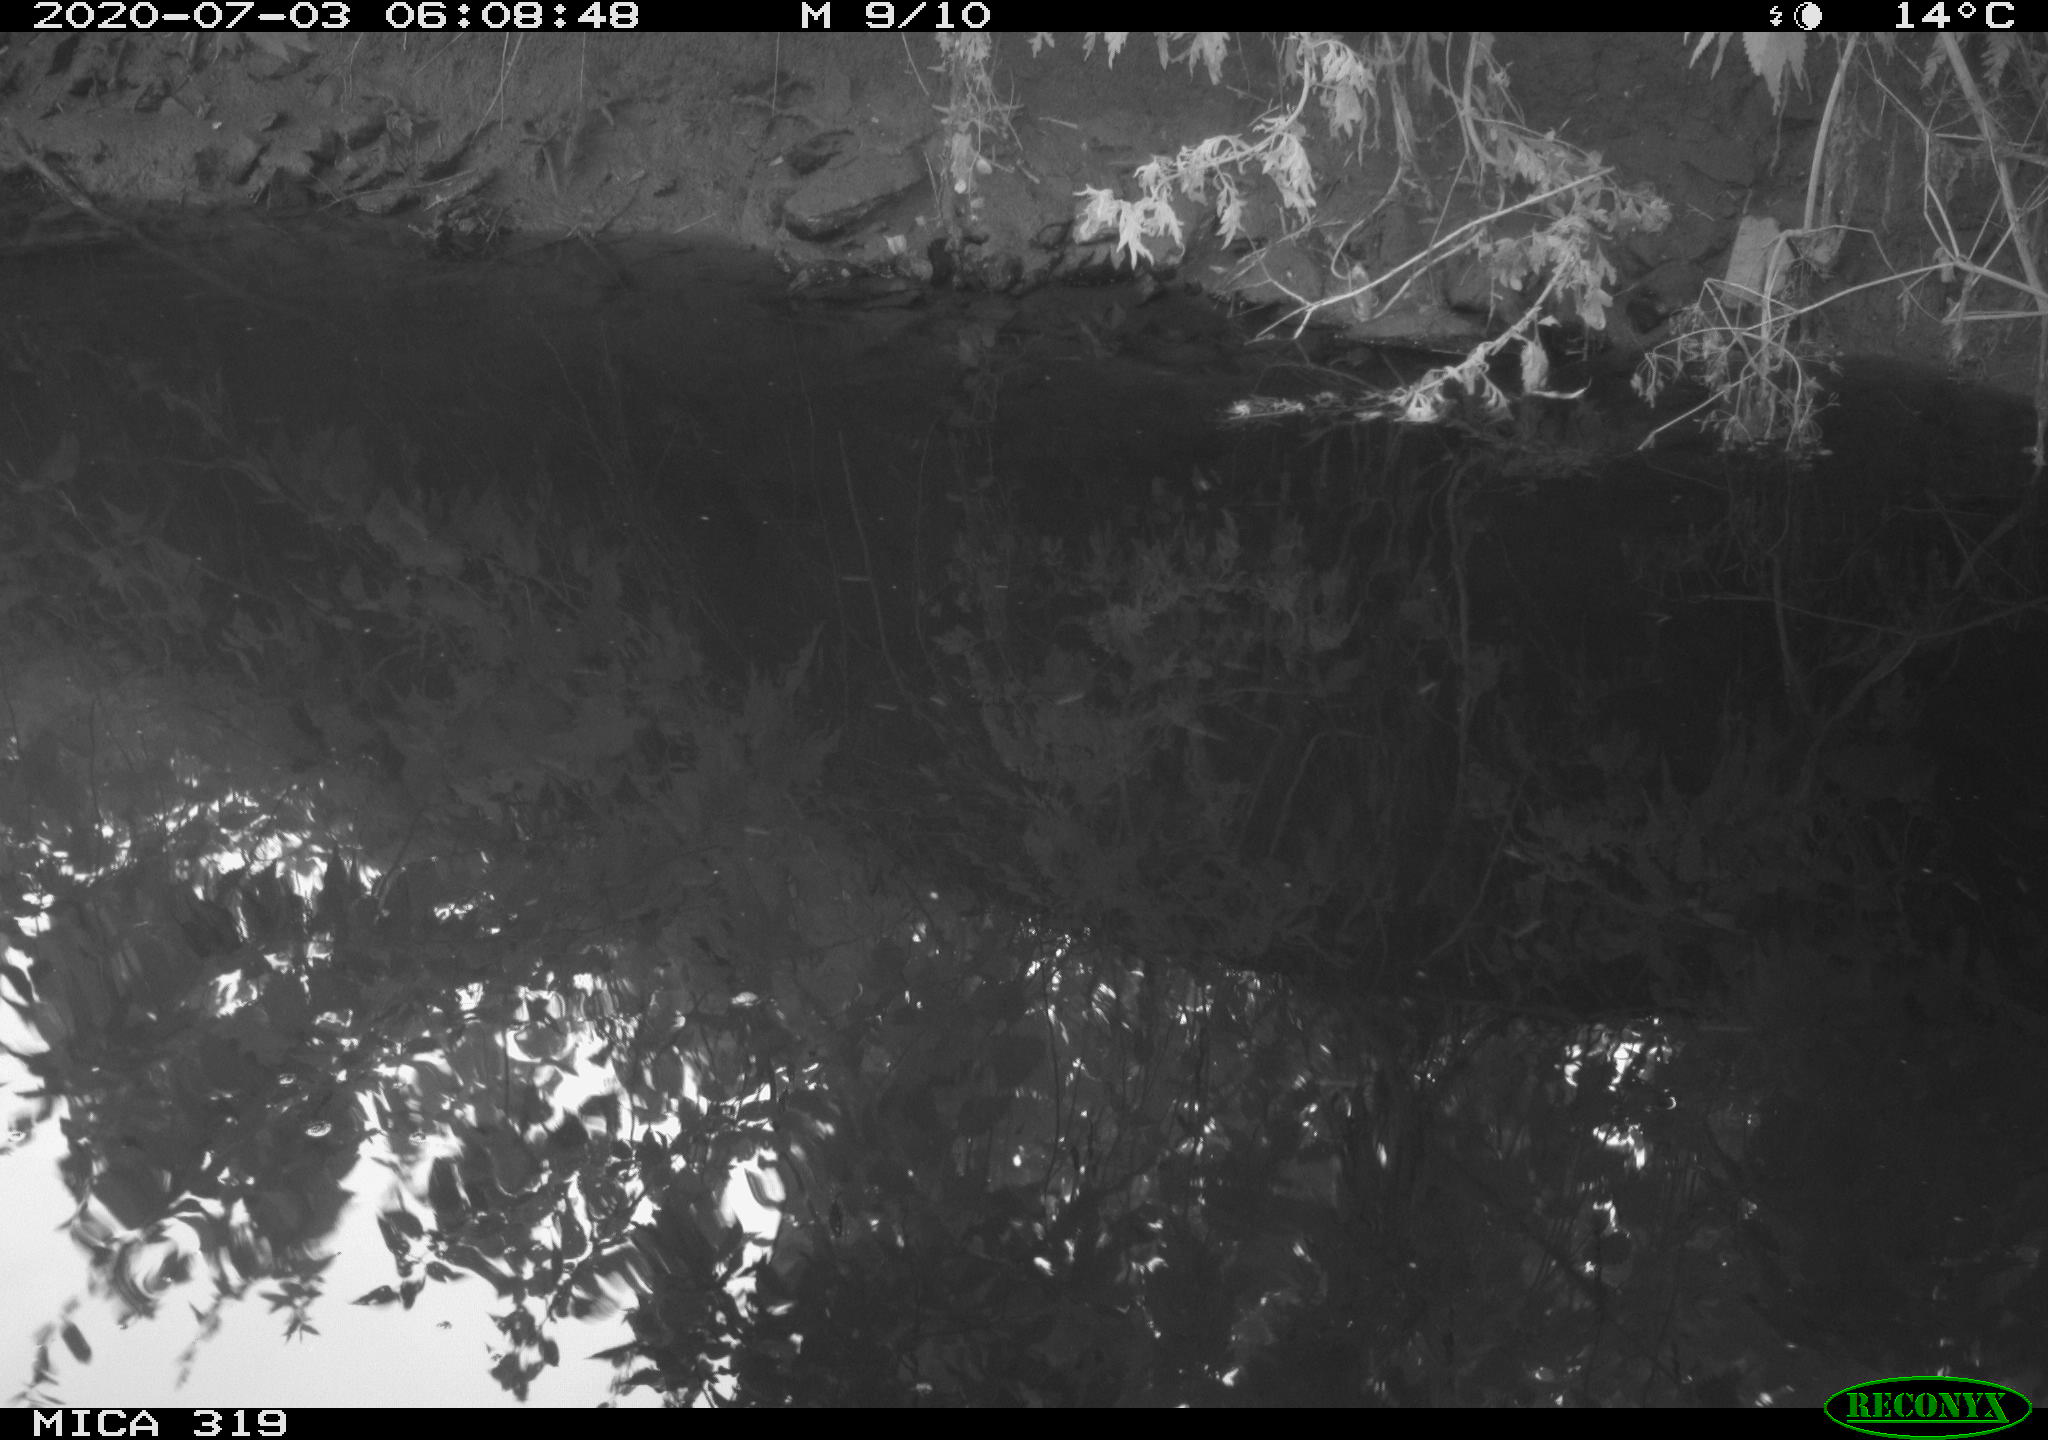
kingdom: Animalia
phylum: Chordata
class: Aves
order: Anseriformes
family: Anatidae
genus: Anas
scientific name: Anas platyrhynchos
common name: Mallard
